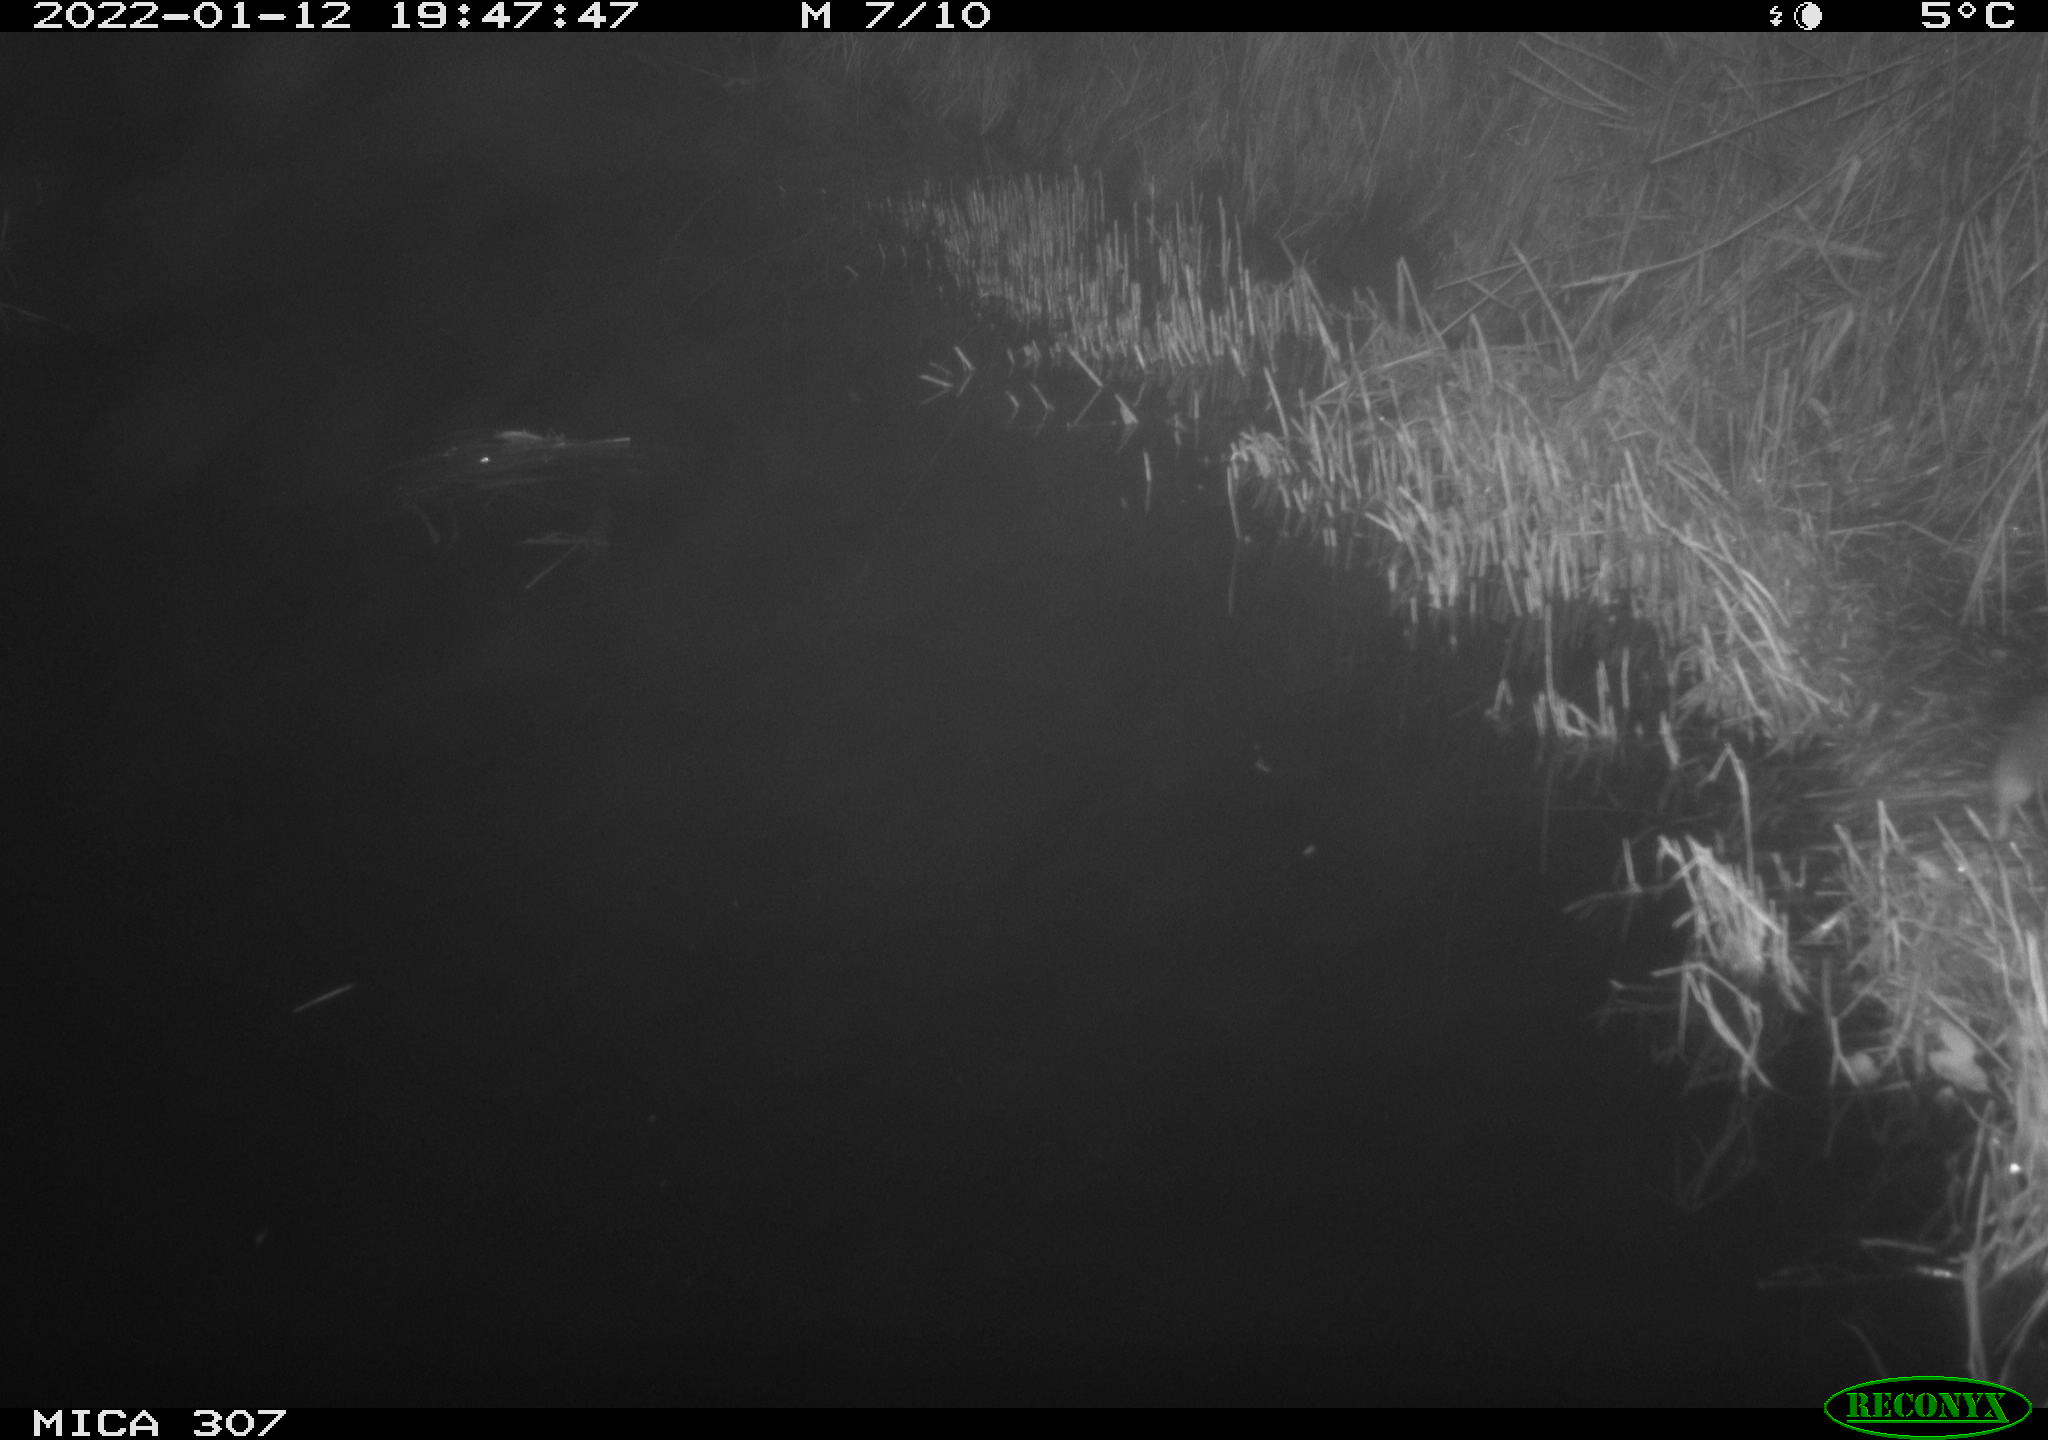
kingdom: Animalia
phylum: Chordata
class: Mammalia
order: Rodentia
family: Muridae
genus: Rattus
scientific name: Rattus norvegicus
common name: Brown rat
